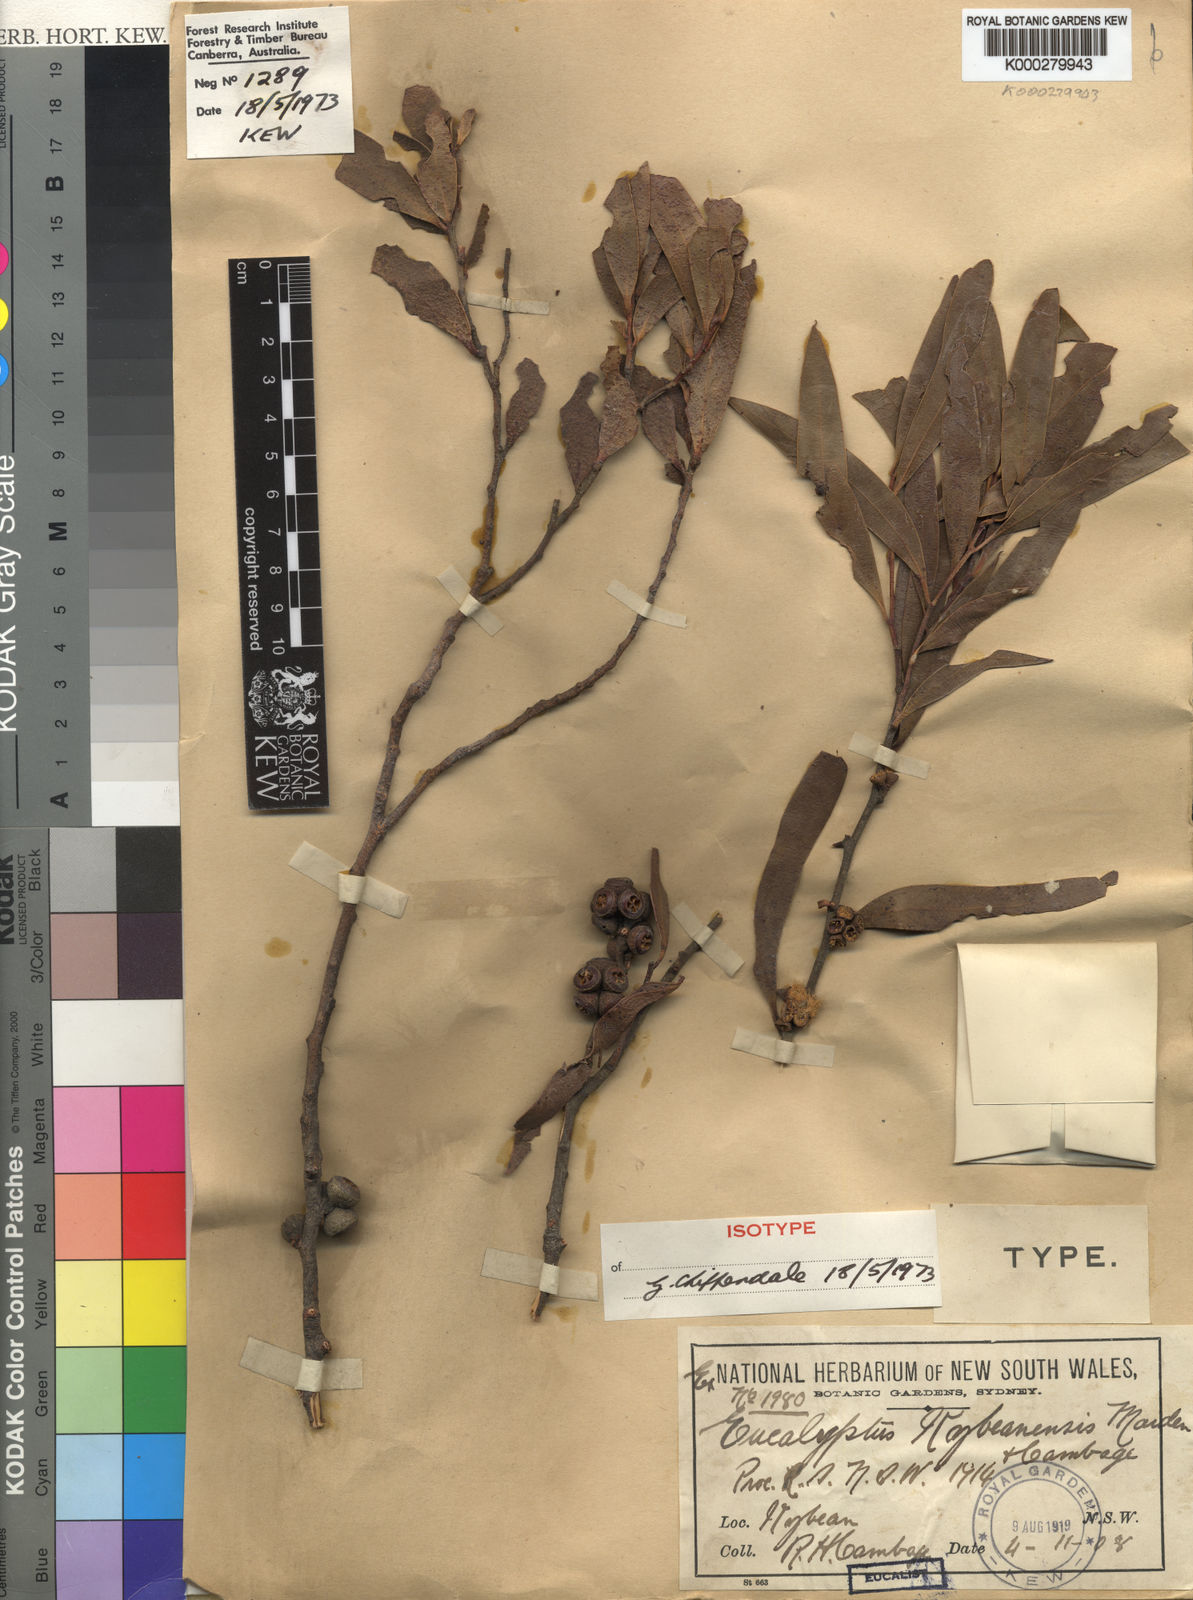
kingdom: Plantae
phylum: Tracheophyta
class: Magnoliopsida
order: Myrtales
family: Myrtaceae
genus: Eucalyptus
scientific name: Eucalyptus kybeanensis
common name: Kybean mallee-ash
